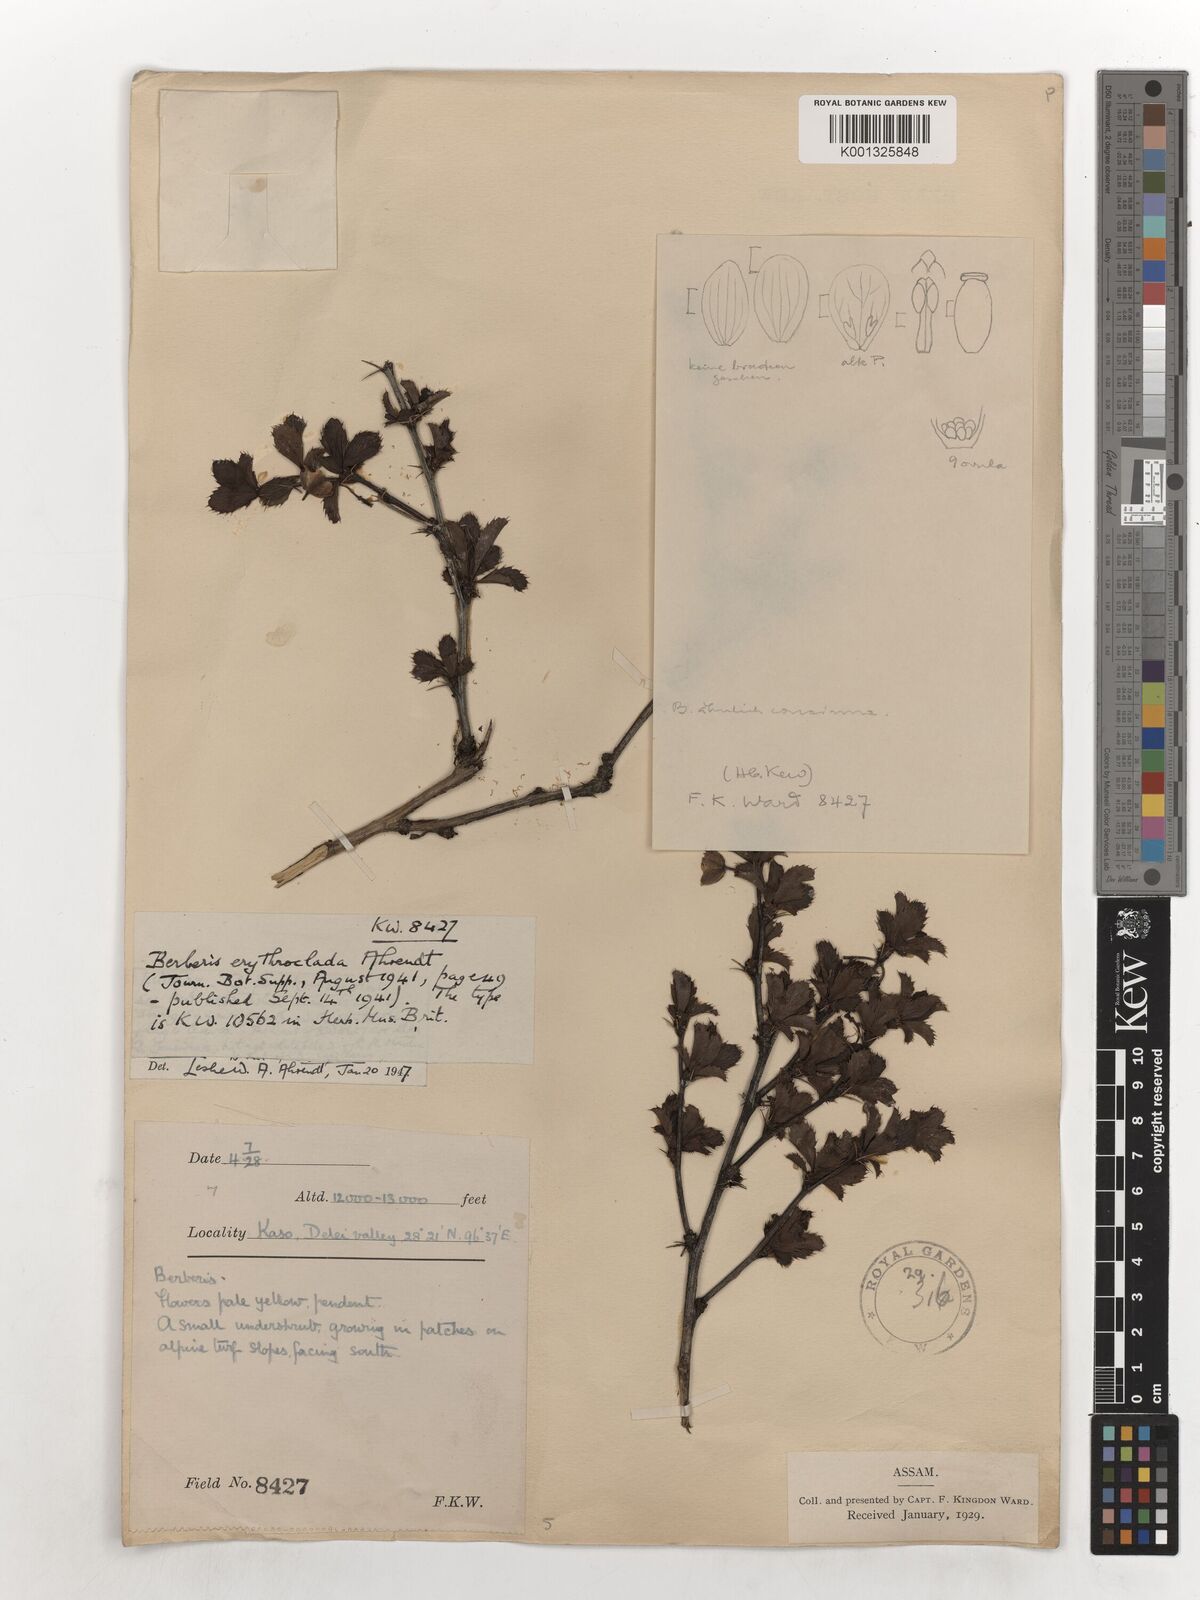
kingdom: Plantae
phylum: Tracheophyta
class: Magnoliopsida
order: Ranunculales
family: Berberidaceae
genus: Berberis
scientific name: Berberis erythroclada
